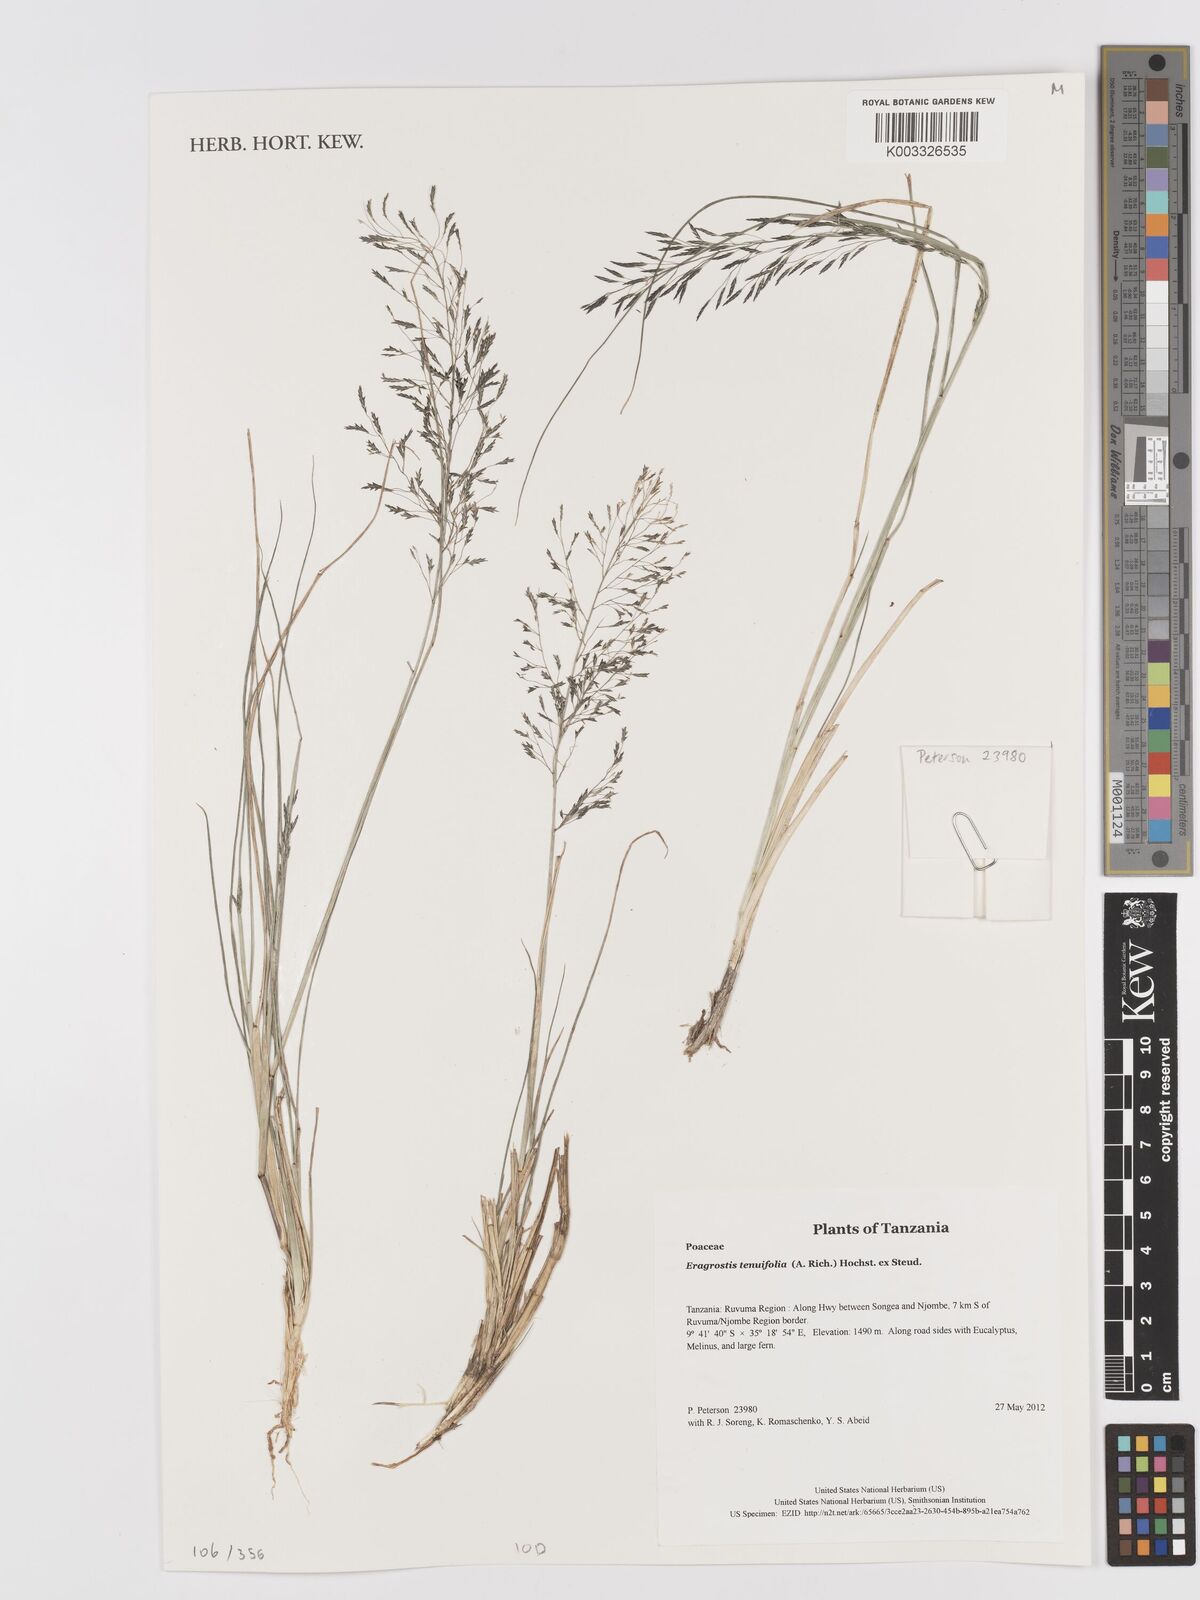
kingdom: Plantae
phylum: Tracheophyta
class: Liliopsida
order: Poales
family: Poaceae
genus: Eragrostis
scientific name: Eragrostis tenuifolia
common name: Elastic grass
